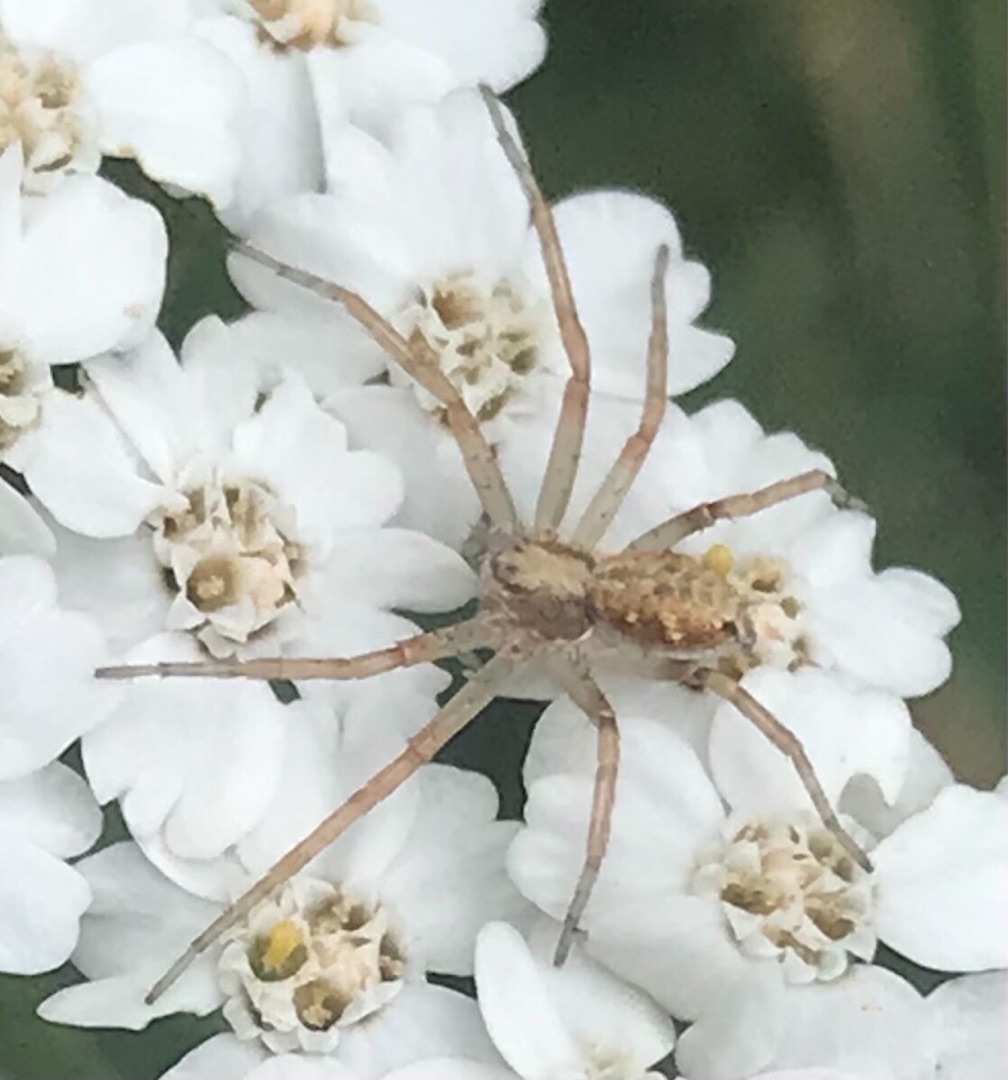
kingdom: Animalia
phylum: Arthropoda
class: Arachnida
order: Araneae
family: Philodromidae
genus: Philodromus
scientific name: Philodromus
